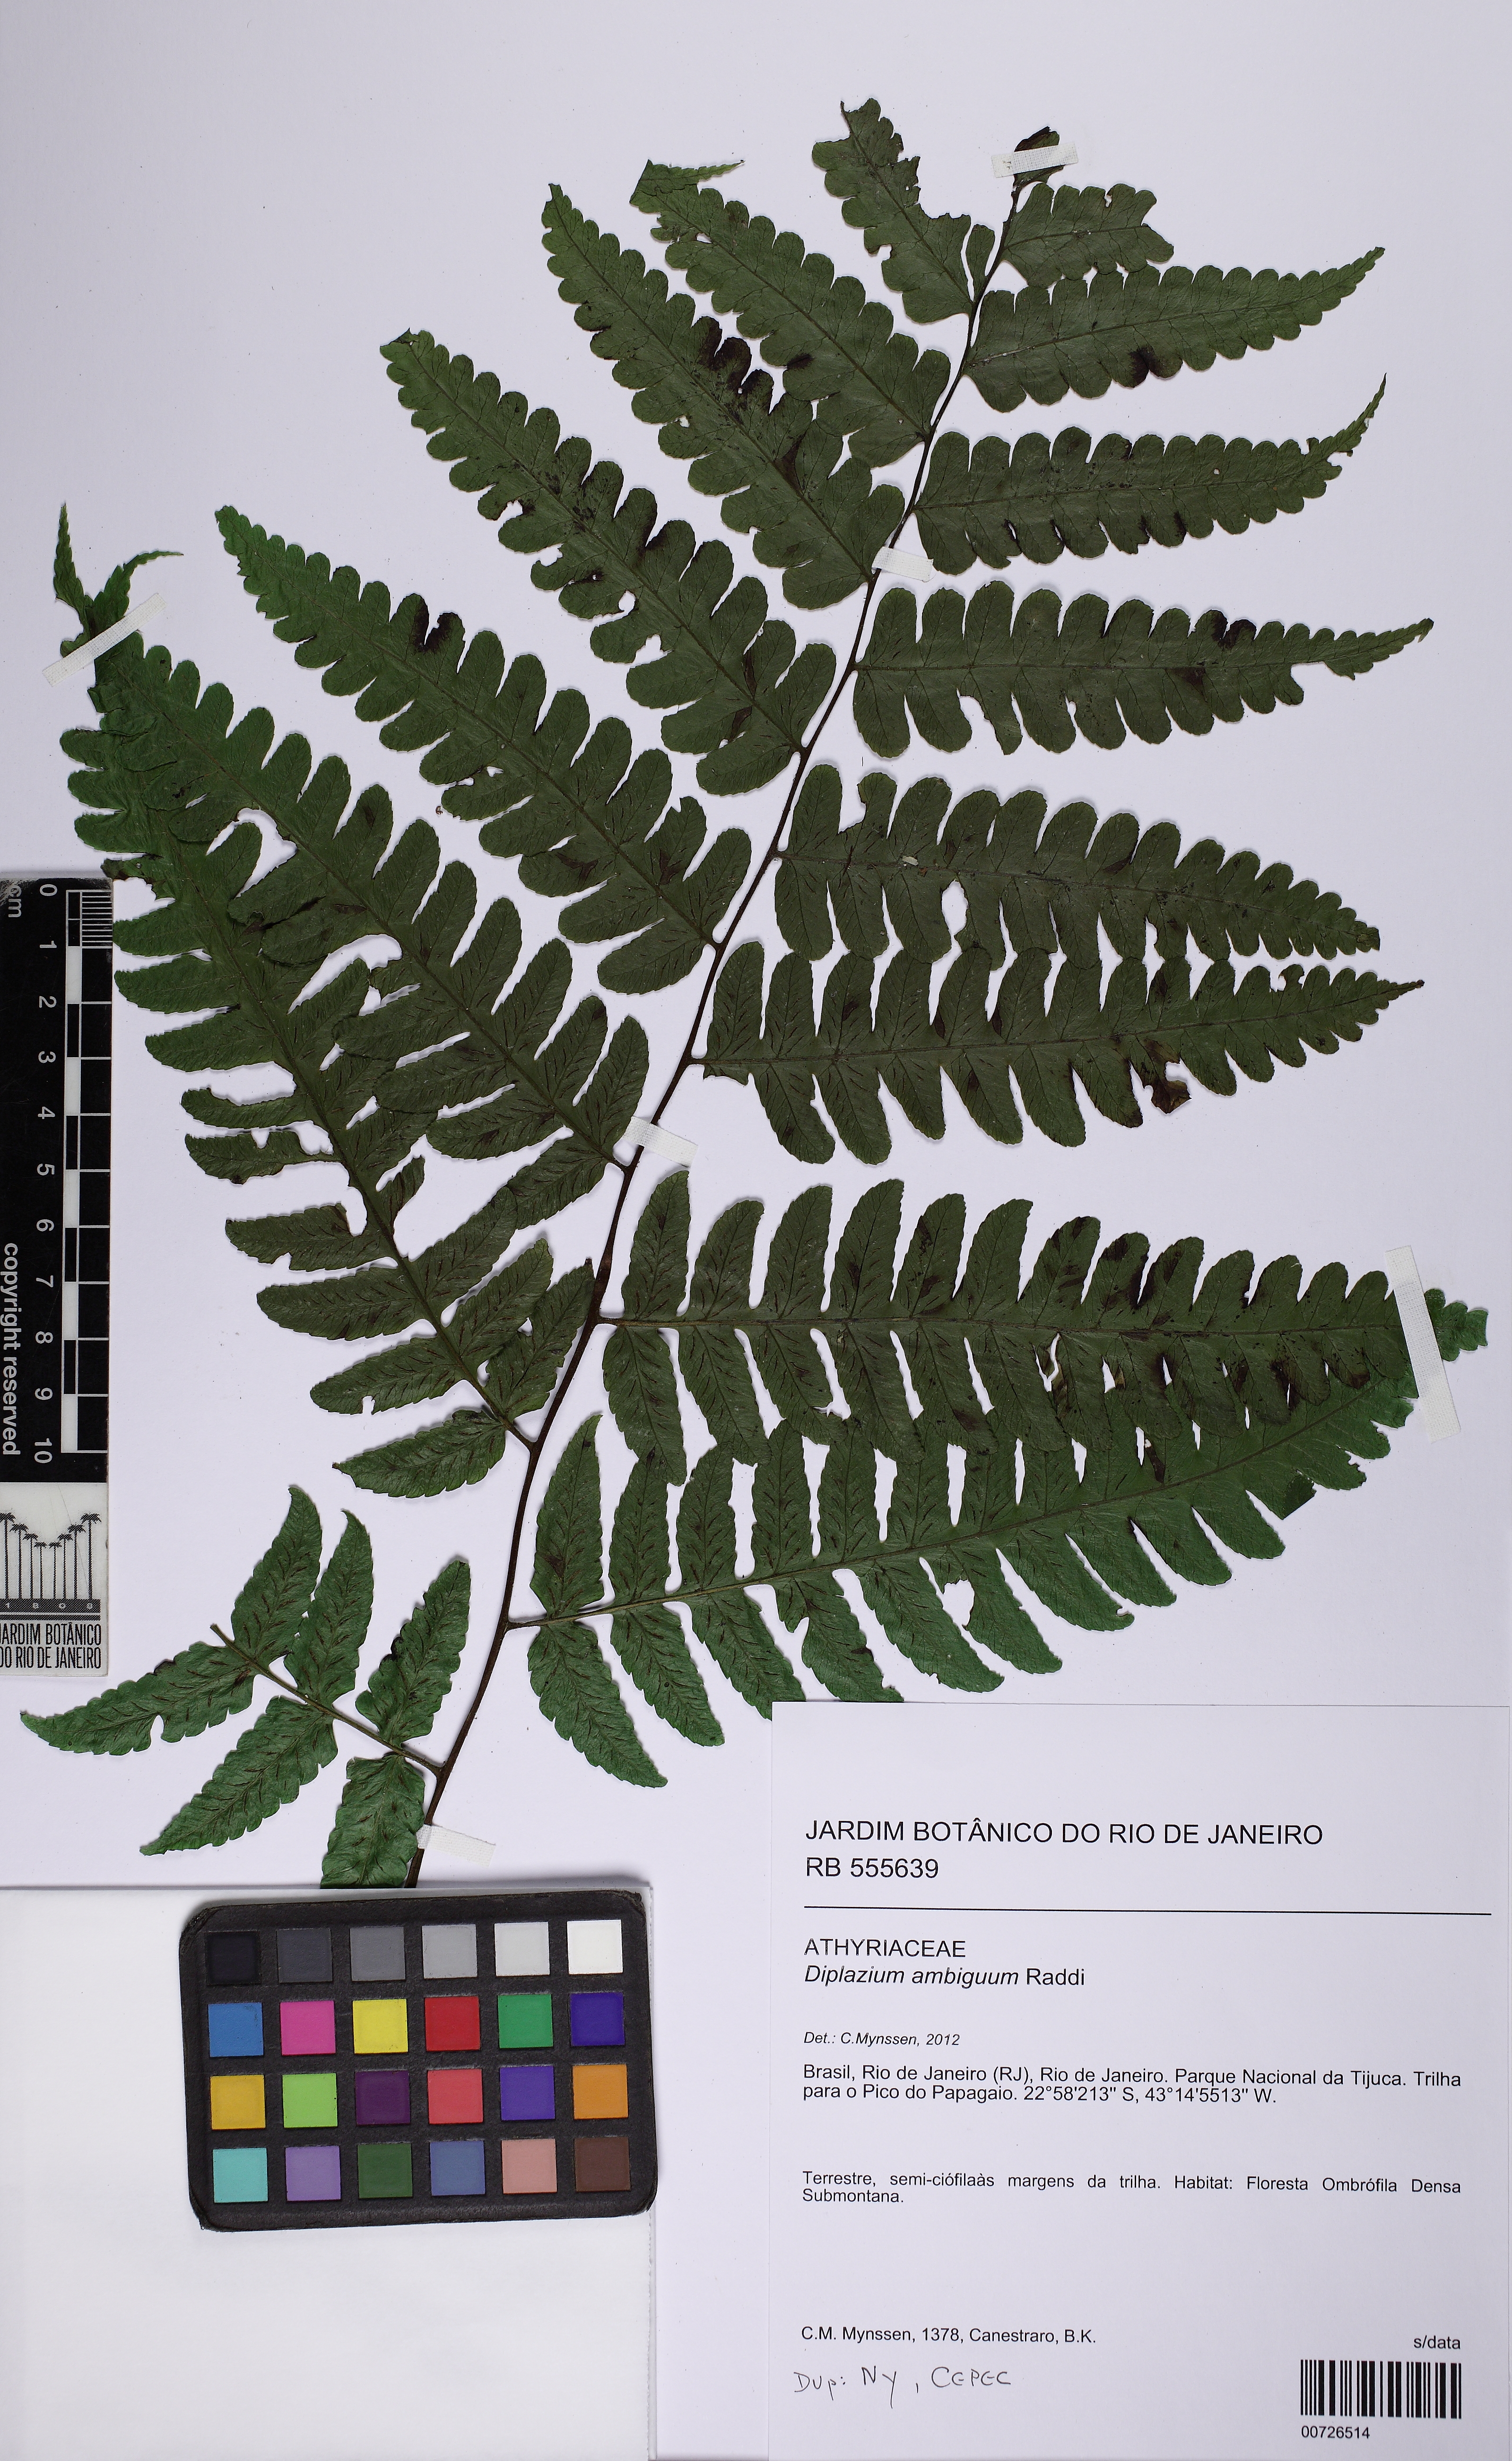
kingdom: Plantae
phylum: Tracheophyta
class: Polypodiopsida
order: Polypodiales
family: Athyriaceae
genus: Diplazium
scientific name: Diplazium ambiguum
